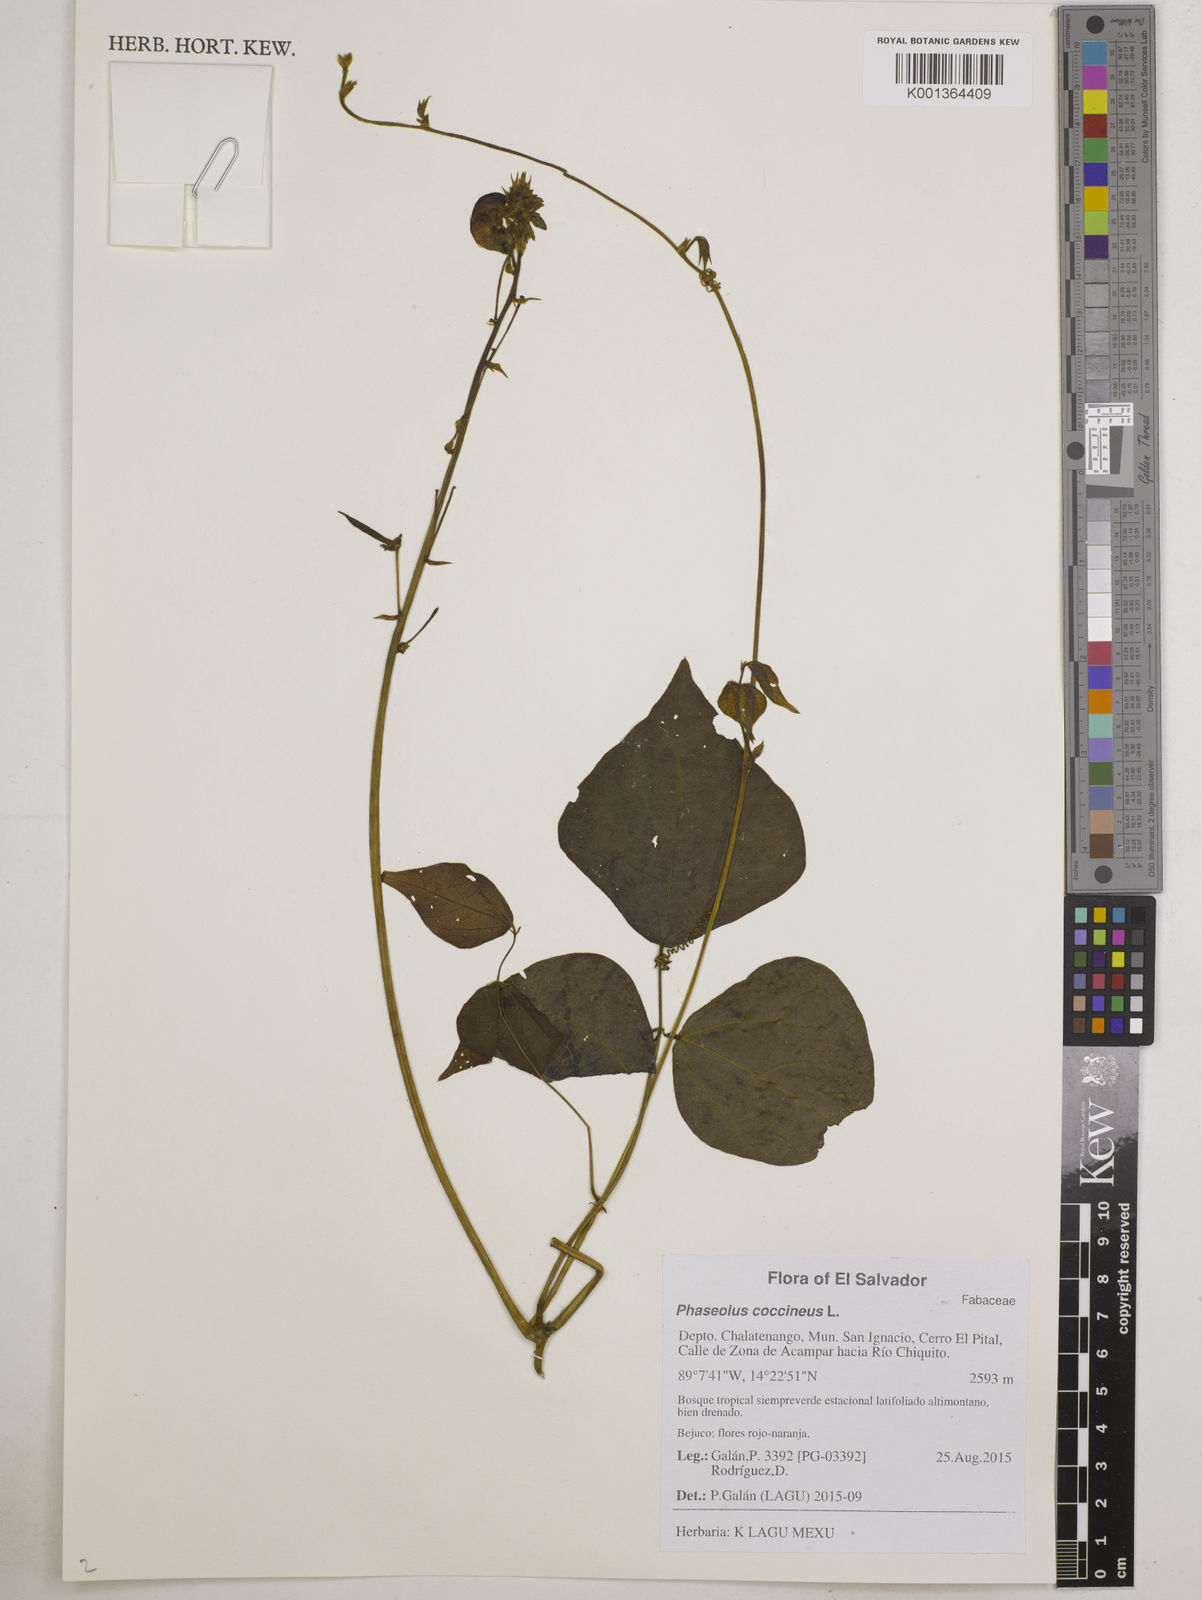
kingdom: Plantae
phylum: Tracheophyta
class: Magnoliopsida
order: Fabales
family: Fabaceae
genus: Phaseolus
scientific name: Phaseolus coccineus
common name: Runner bean
